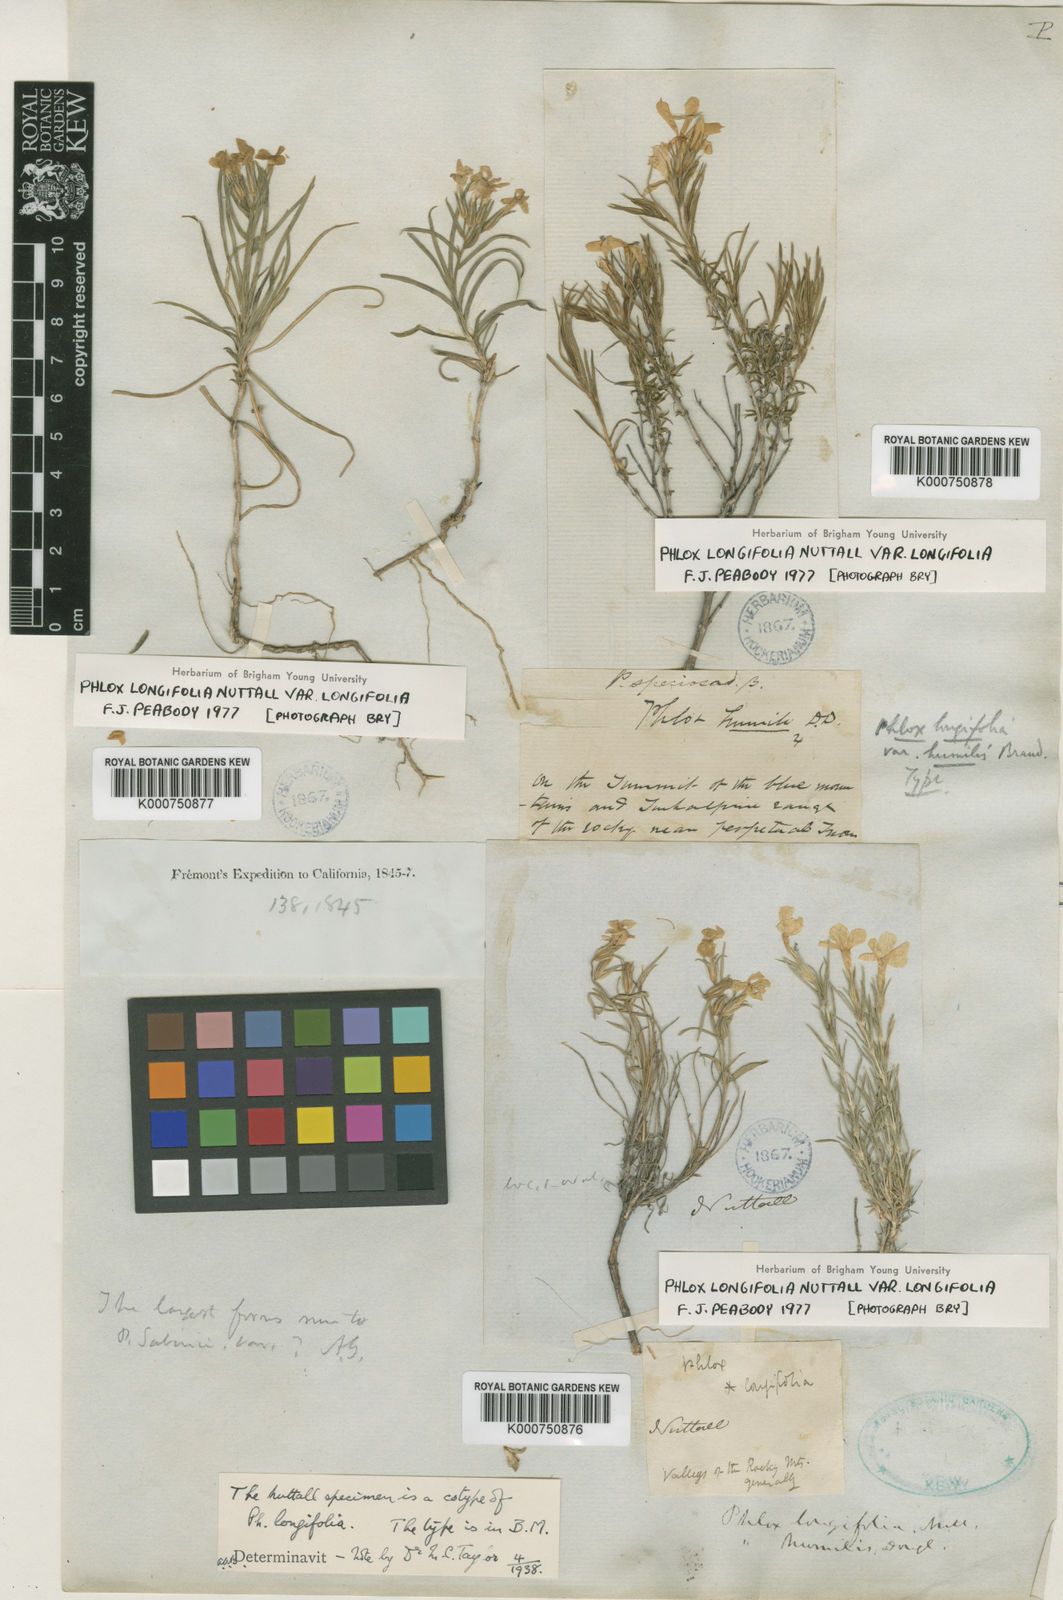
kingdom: Plantae
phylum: Tracheophyta
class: Magnoliopsida
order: Ericales
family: Polemoniaceae
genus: Phlox
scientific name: Phlox longifolia
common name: Longleaf phlox
